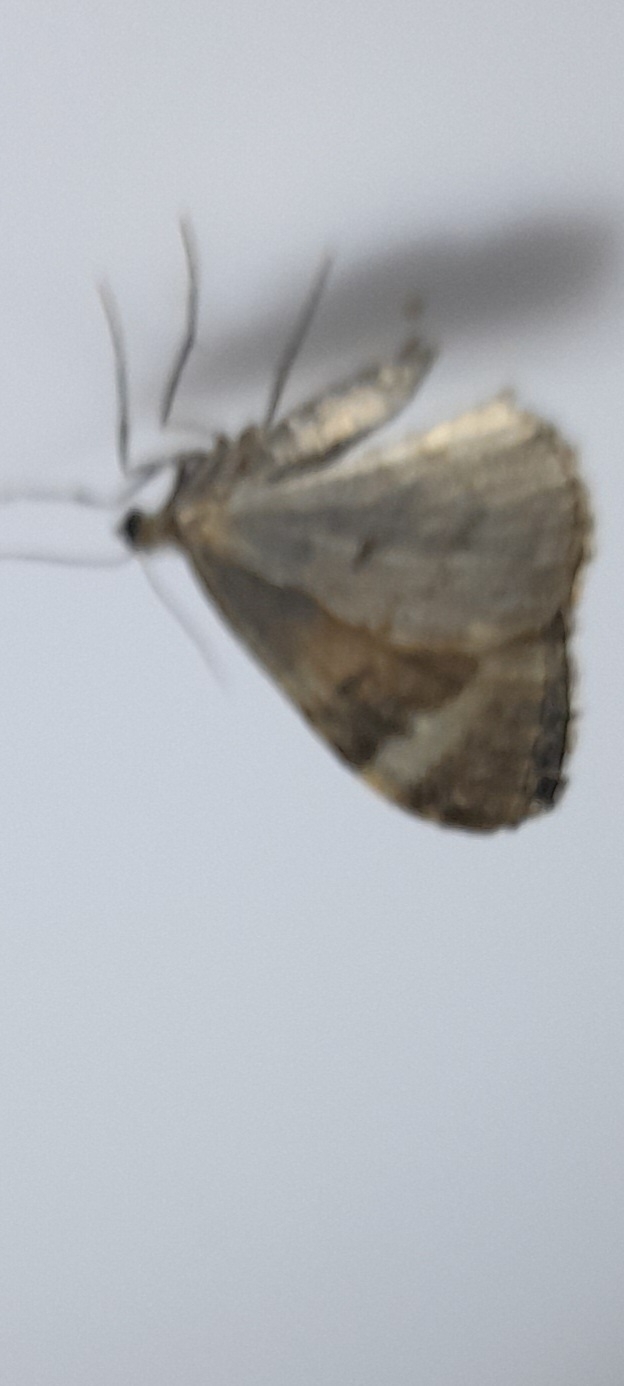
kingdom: Animalia
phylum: Arthropoda
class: Insecta
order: Lepidoptera
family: Geometridae
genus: Dysstroma
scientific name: Dysstroma truncata
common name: Jordbær-bladmåler
